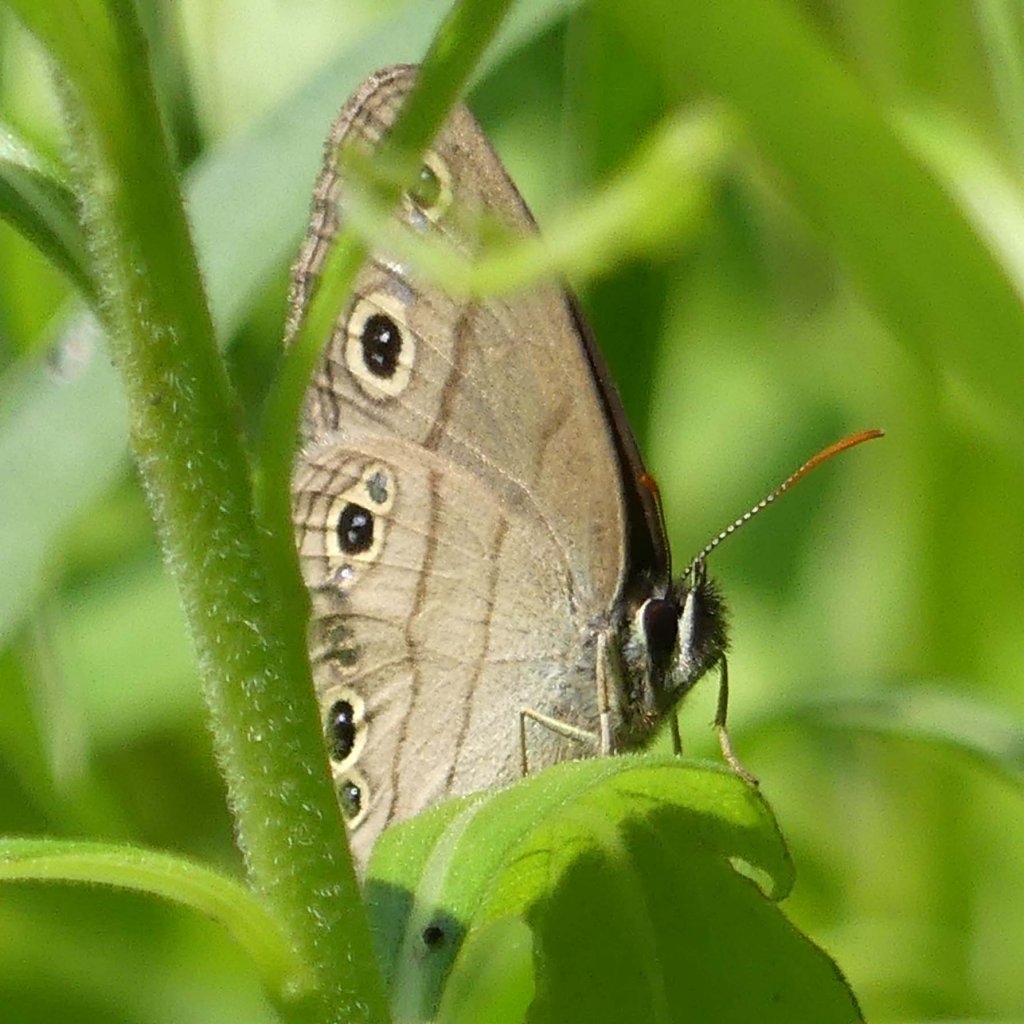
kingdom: Animalia
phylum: Arthropoda
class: Insecta
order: Lepidoptera
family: Nymphalidae
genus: Euptychia
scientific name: Euptychia cymela
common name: Little Wood Satyr
